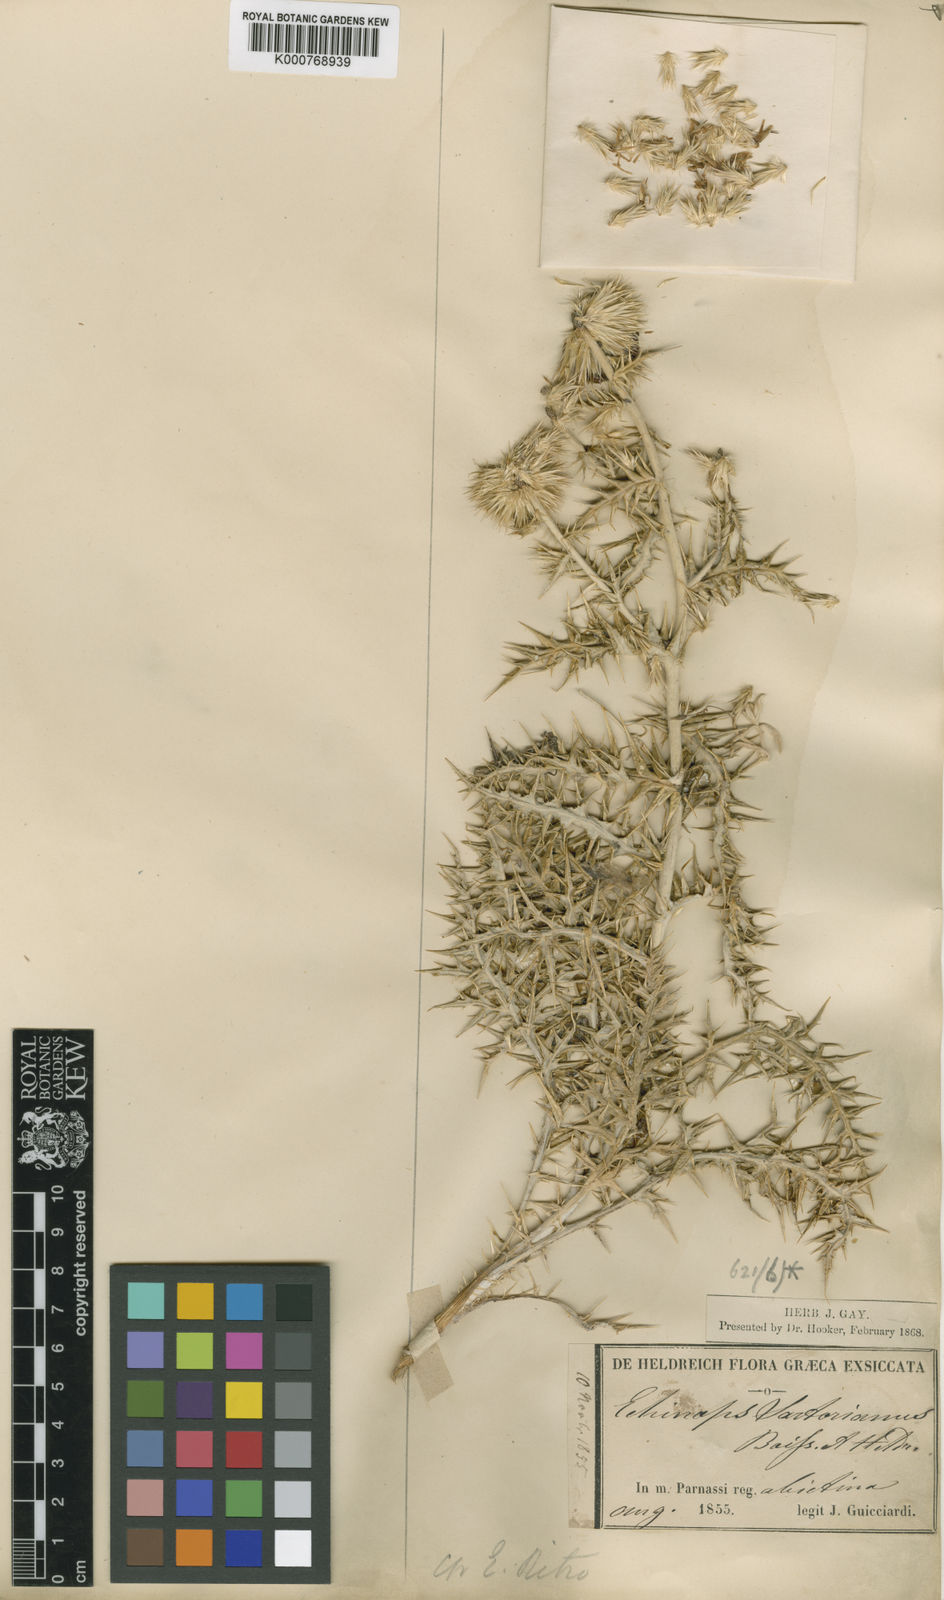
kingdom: Plantae
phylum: Tracheophyta
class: Magnoliopsida
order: Asterales
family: Asteraceae
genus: Echinops
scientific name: Echinops ritro
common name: Globe thistle
